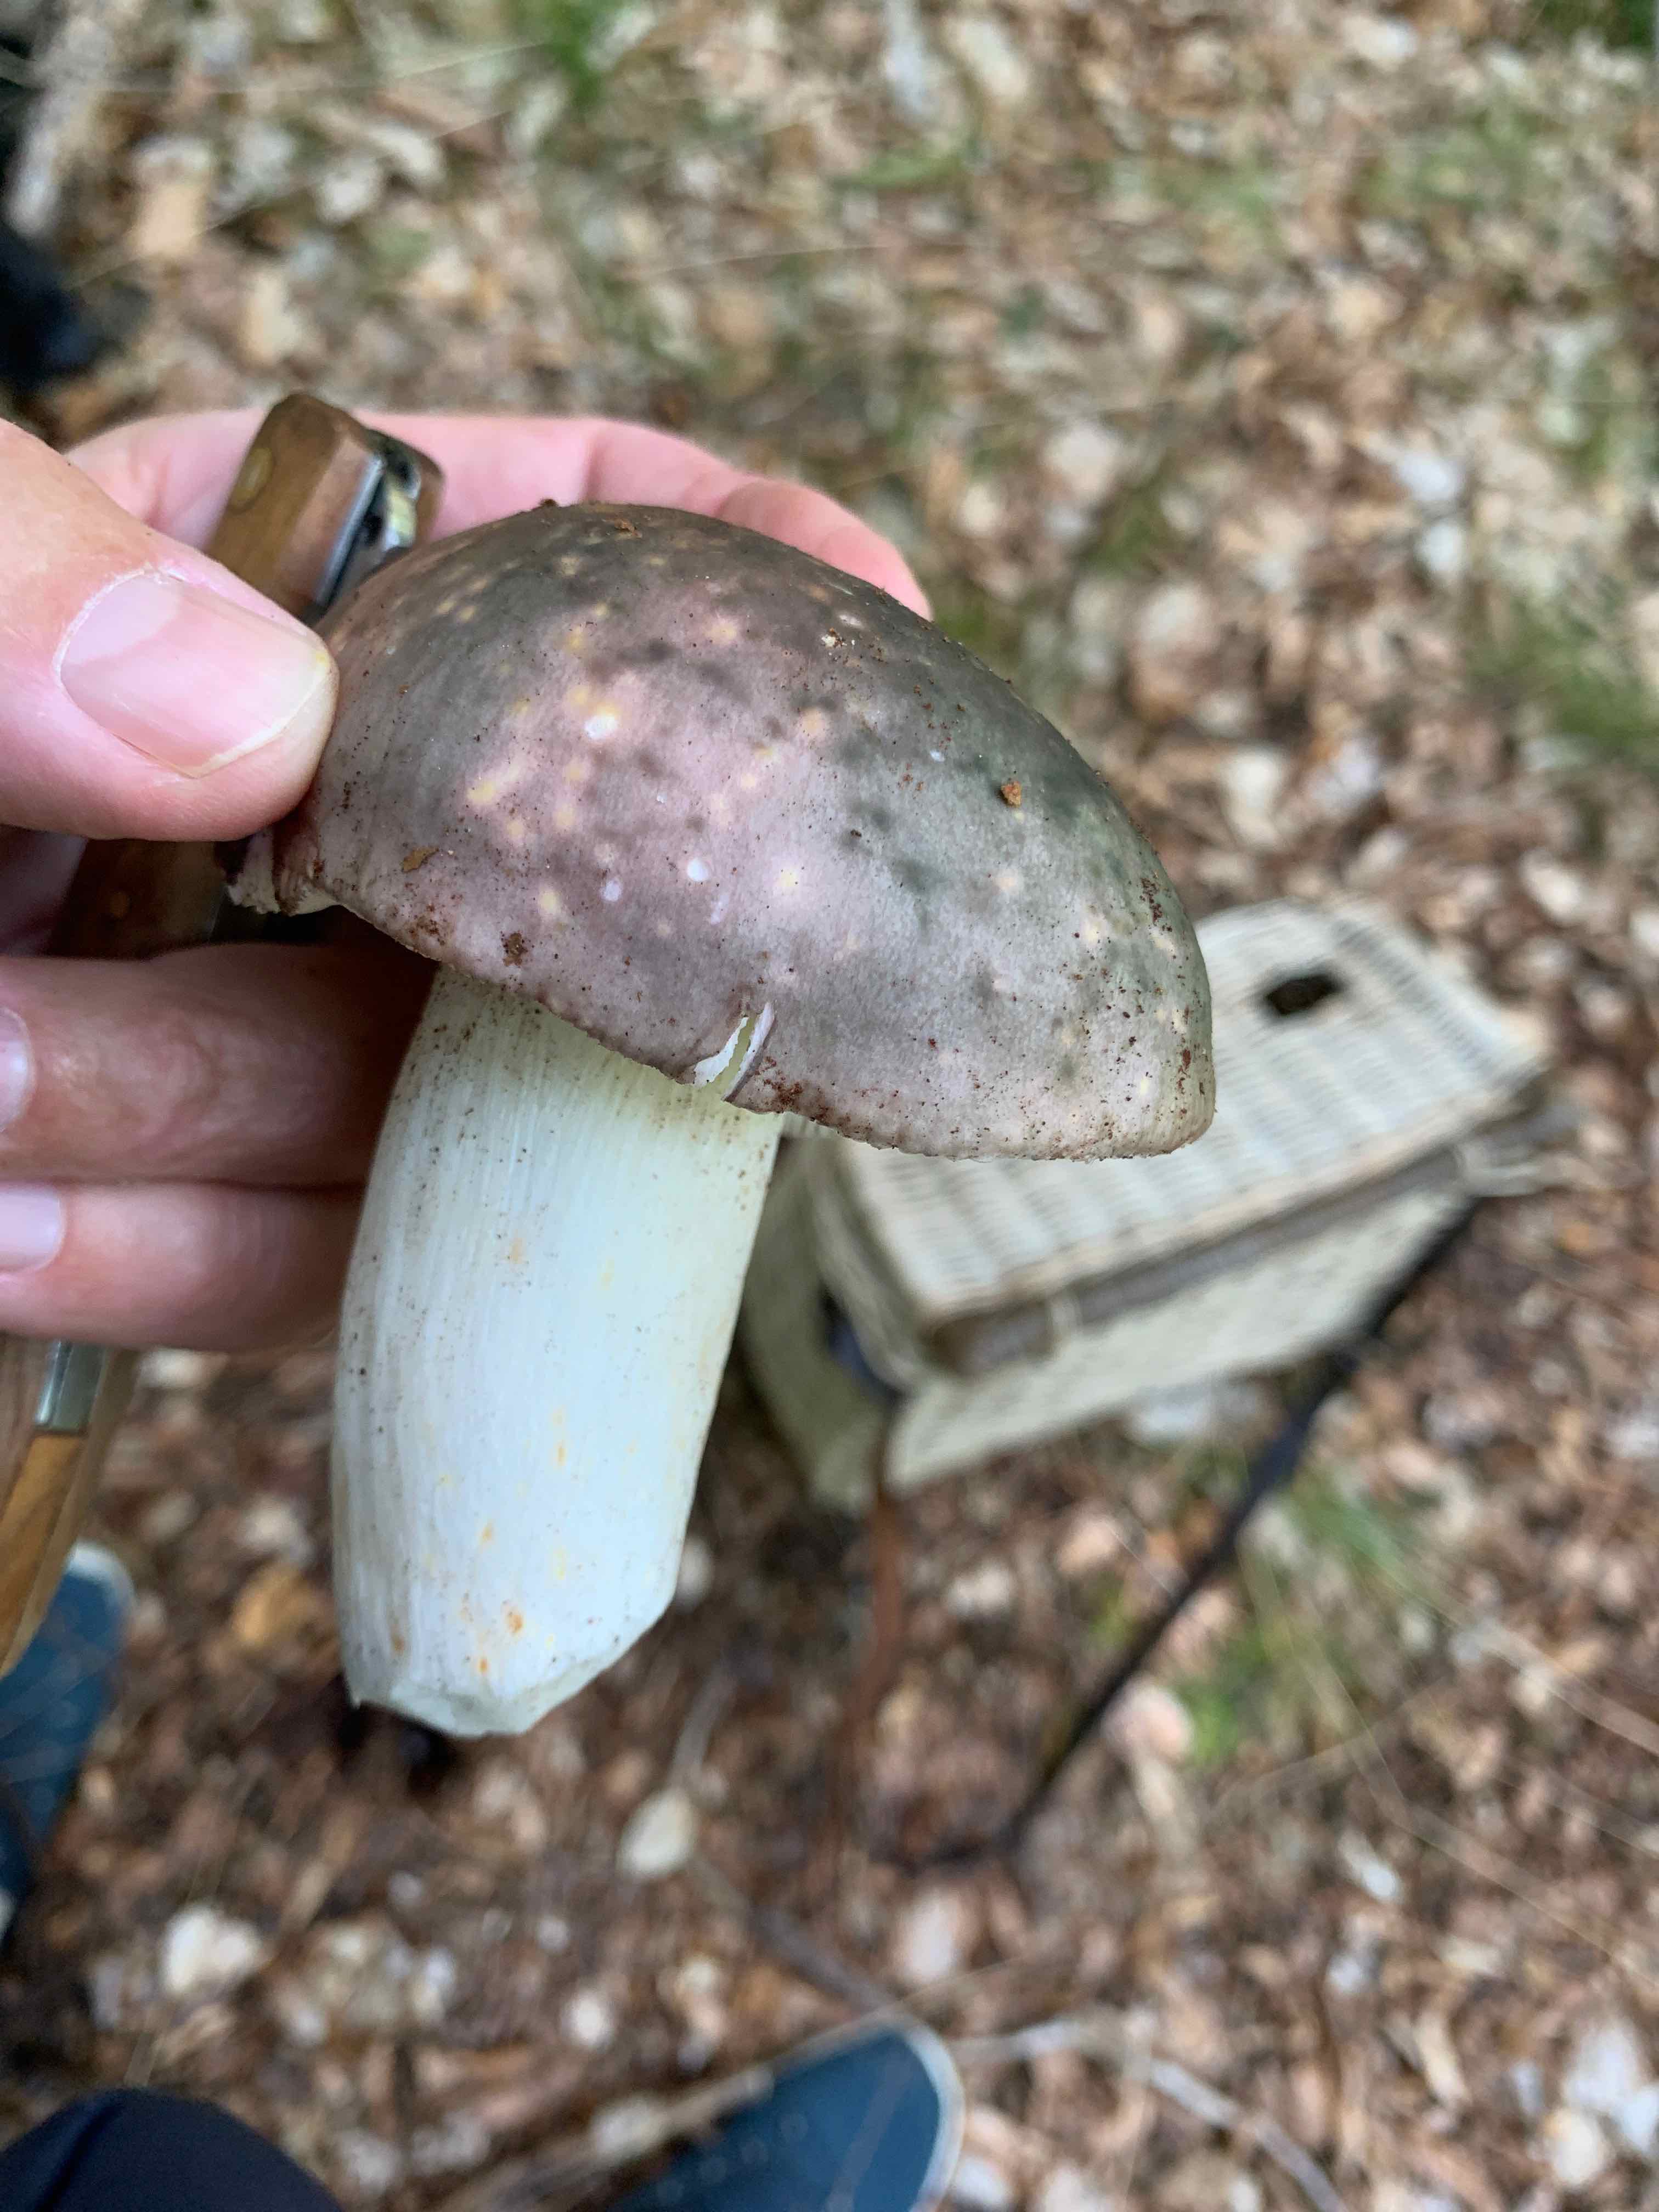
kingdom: Fungi
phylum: Basidiomycota
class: Agaricomycetes
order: Russulales
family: Russulaceae
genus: Russula
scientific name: Russula cyanoxantha
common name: broget skørhat
